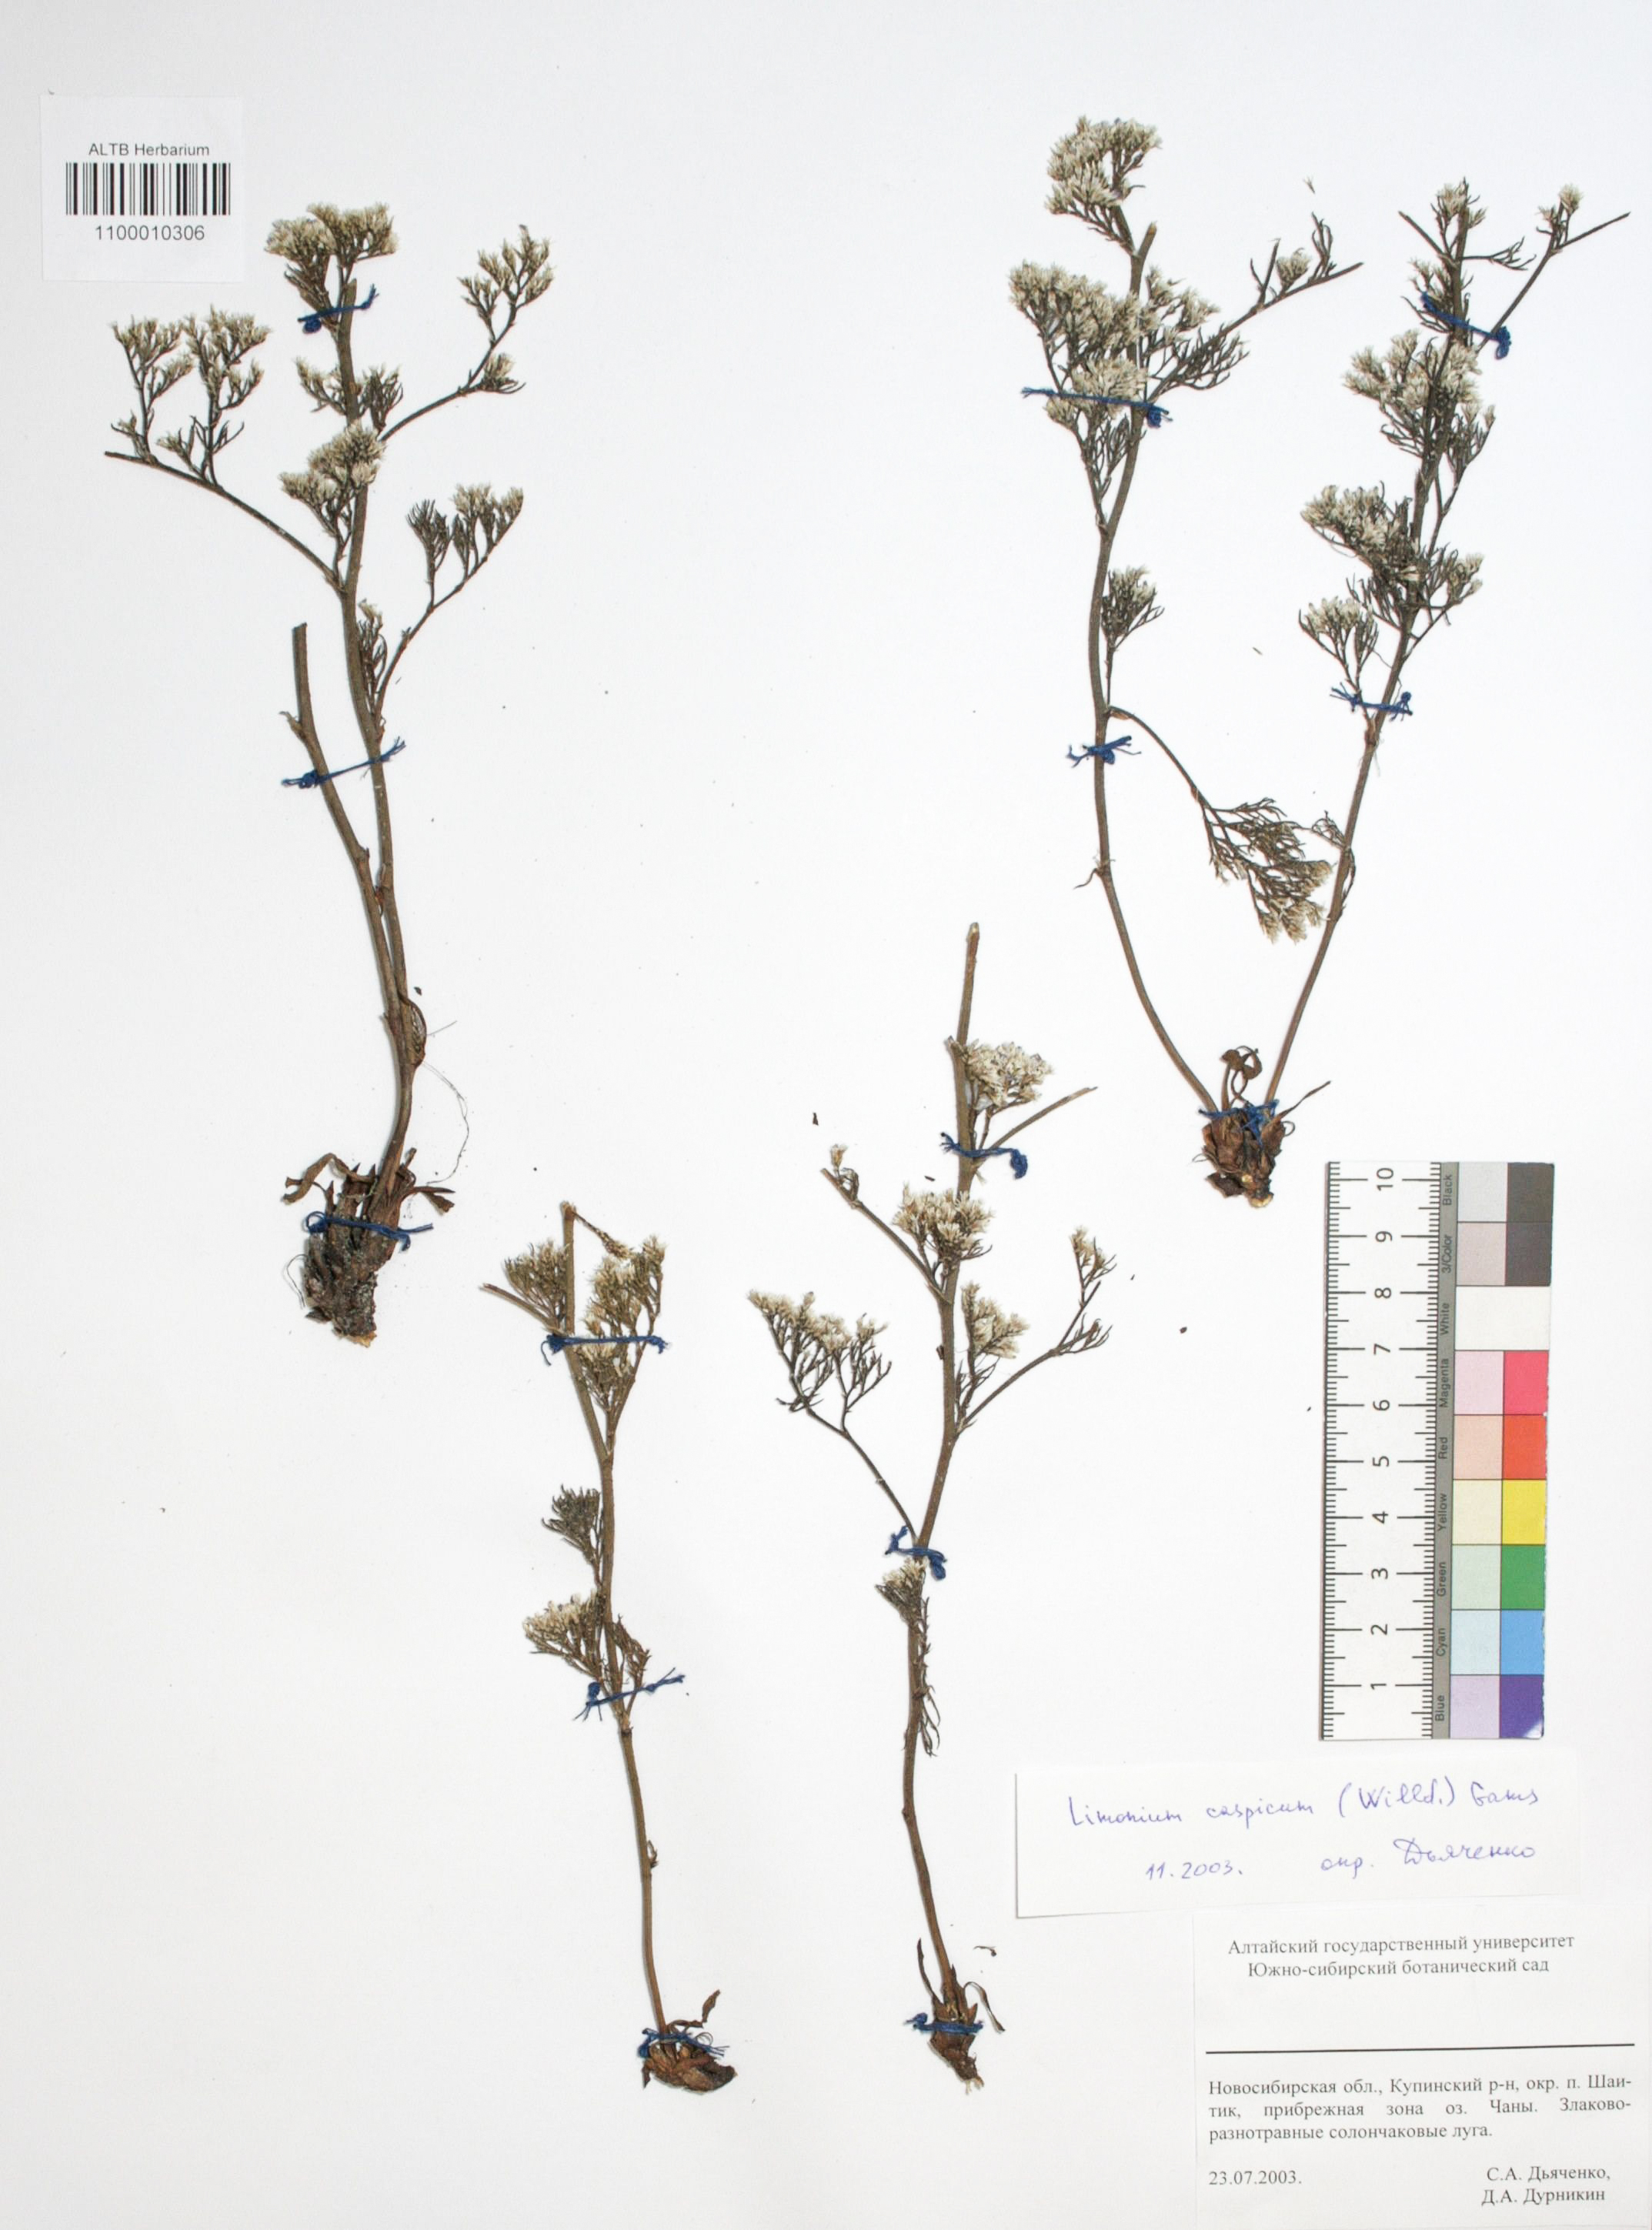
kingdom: Plantae
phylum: Tracheophyta
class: Magnoliopsida
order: Caryophyllales
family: Plumbaginaceae
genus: Limonium
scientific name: Limonium bellidifolium
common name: Matted sea-lavender
